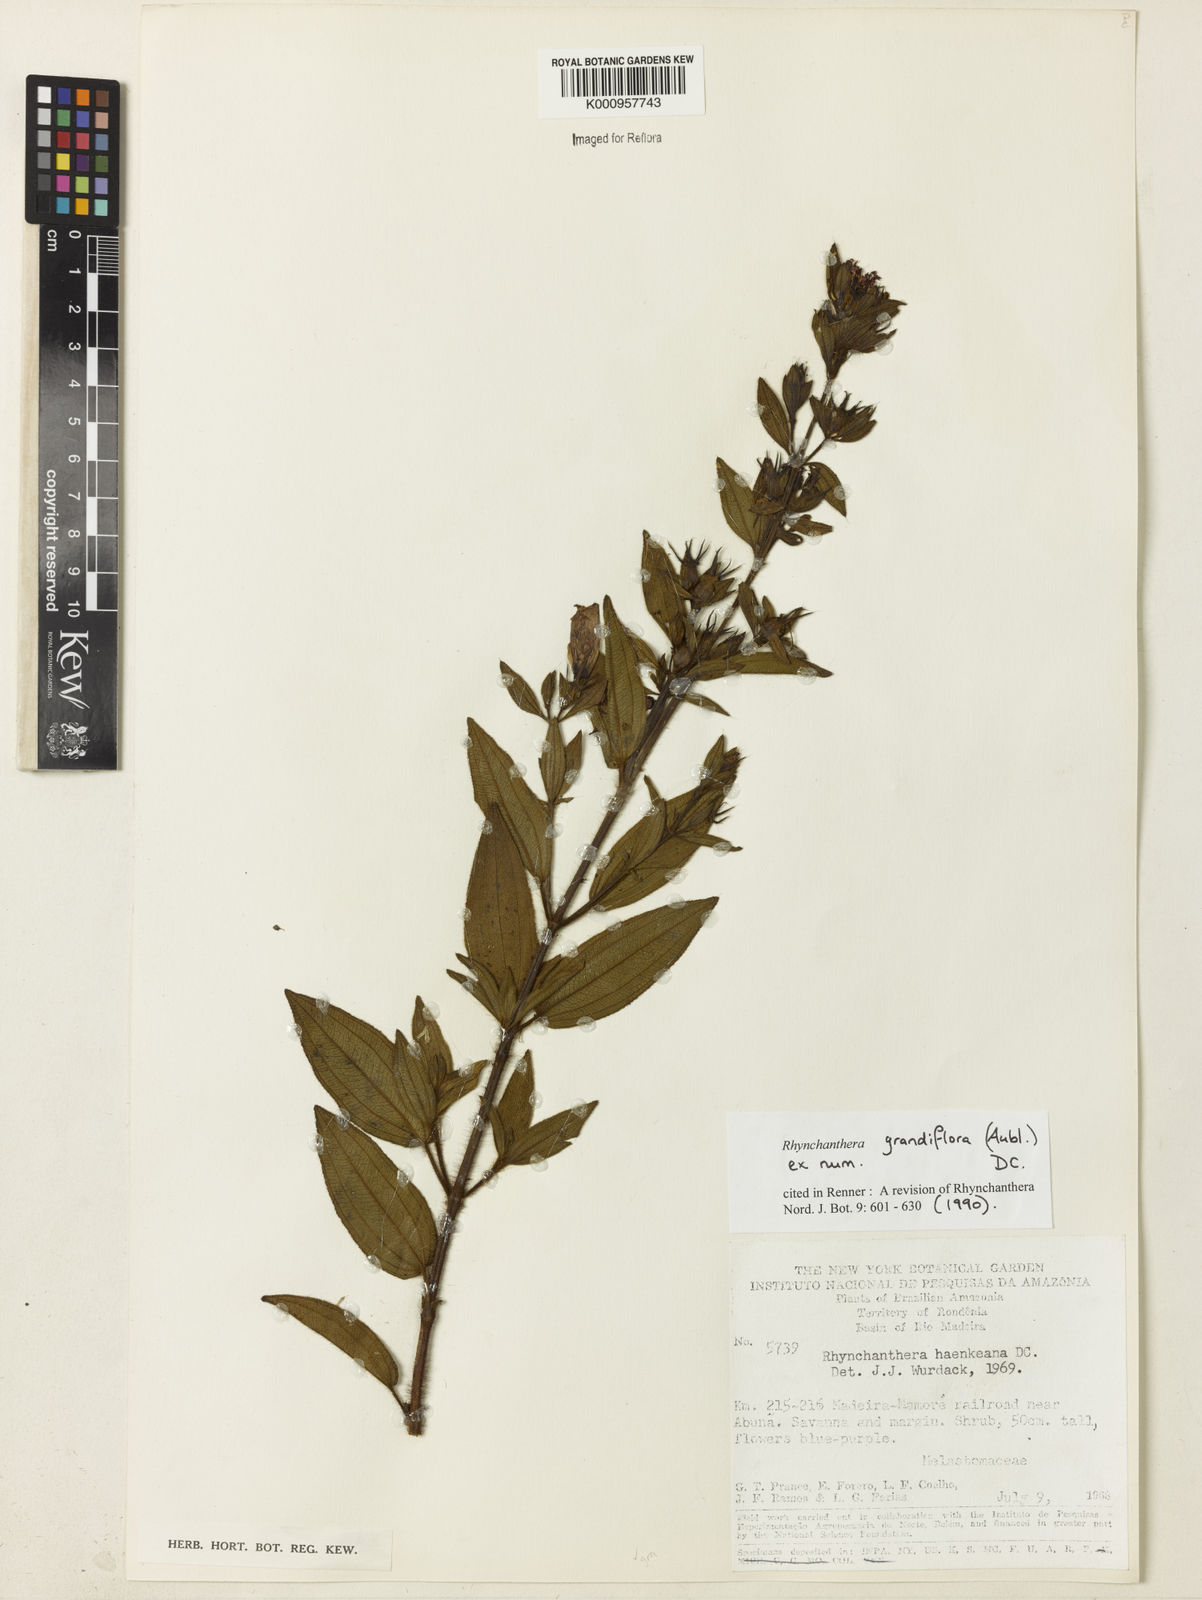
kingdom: Plantae
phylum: Tracheophyta
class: Magnoliopsida
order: Myrtales
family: Melastomataceae
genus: Rhynchanthera
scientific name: Rhynchanthera grandiflora
